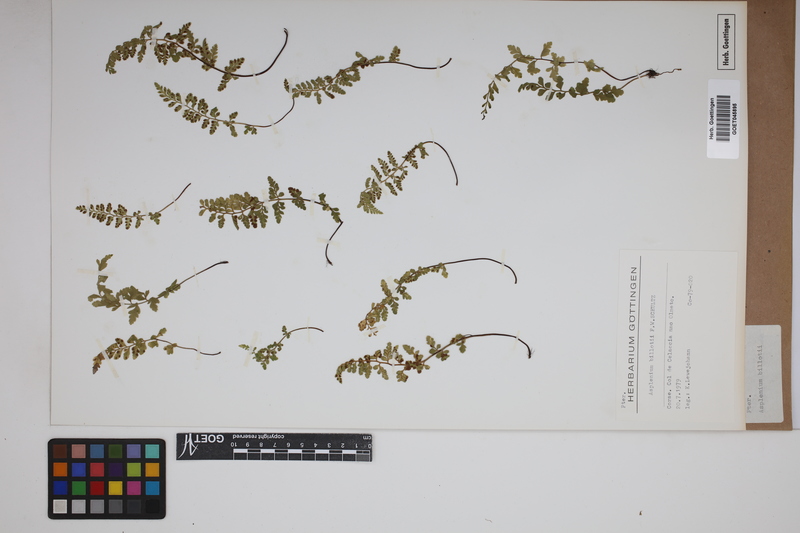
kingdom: Plantae
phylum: Tracheophyta
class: Polypodiopsida
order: Polypodiales
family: Aspleniaceae
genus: Asplenium
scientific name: Asplenium obovatum
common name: Lanceolate spleenwort
